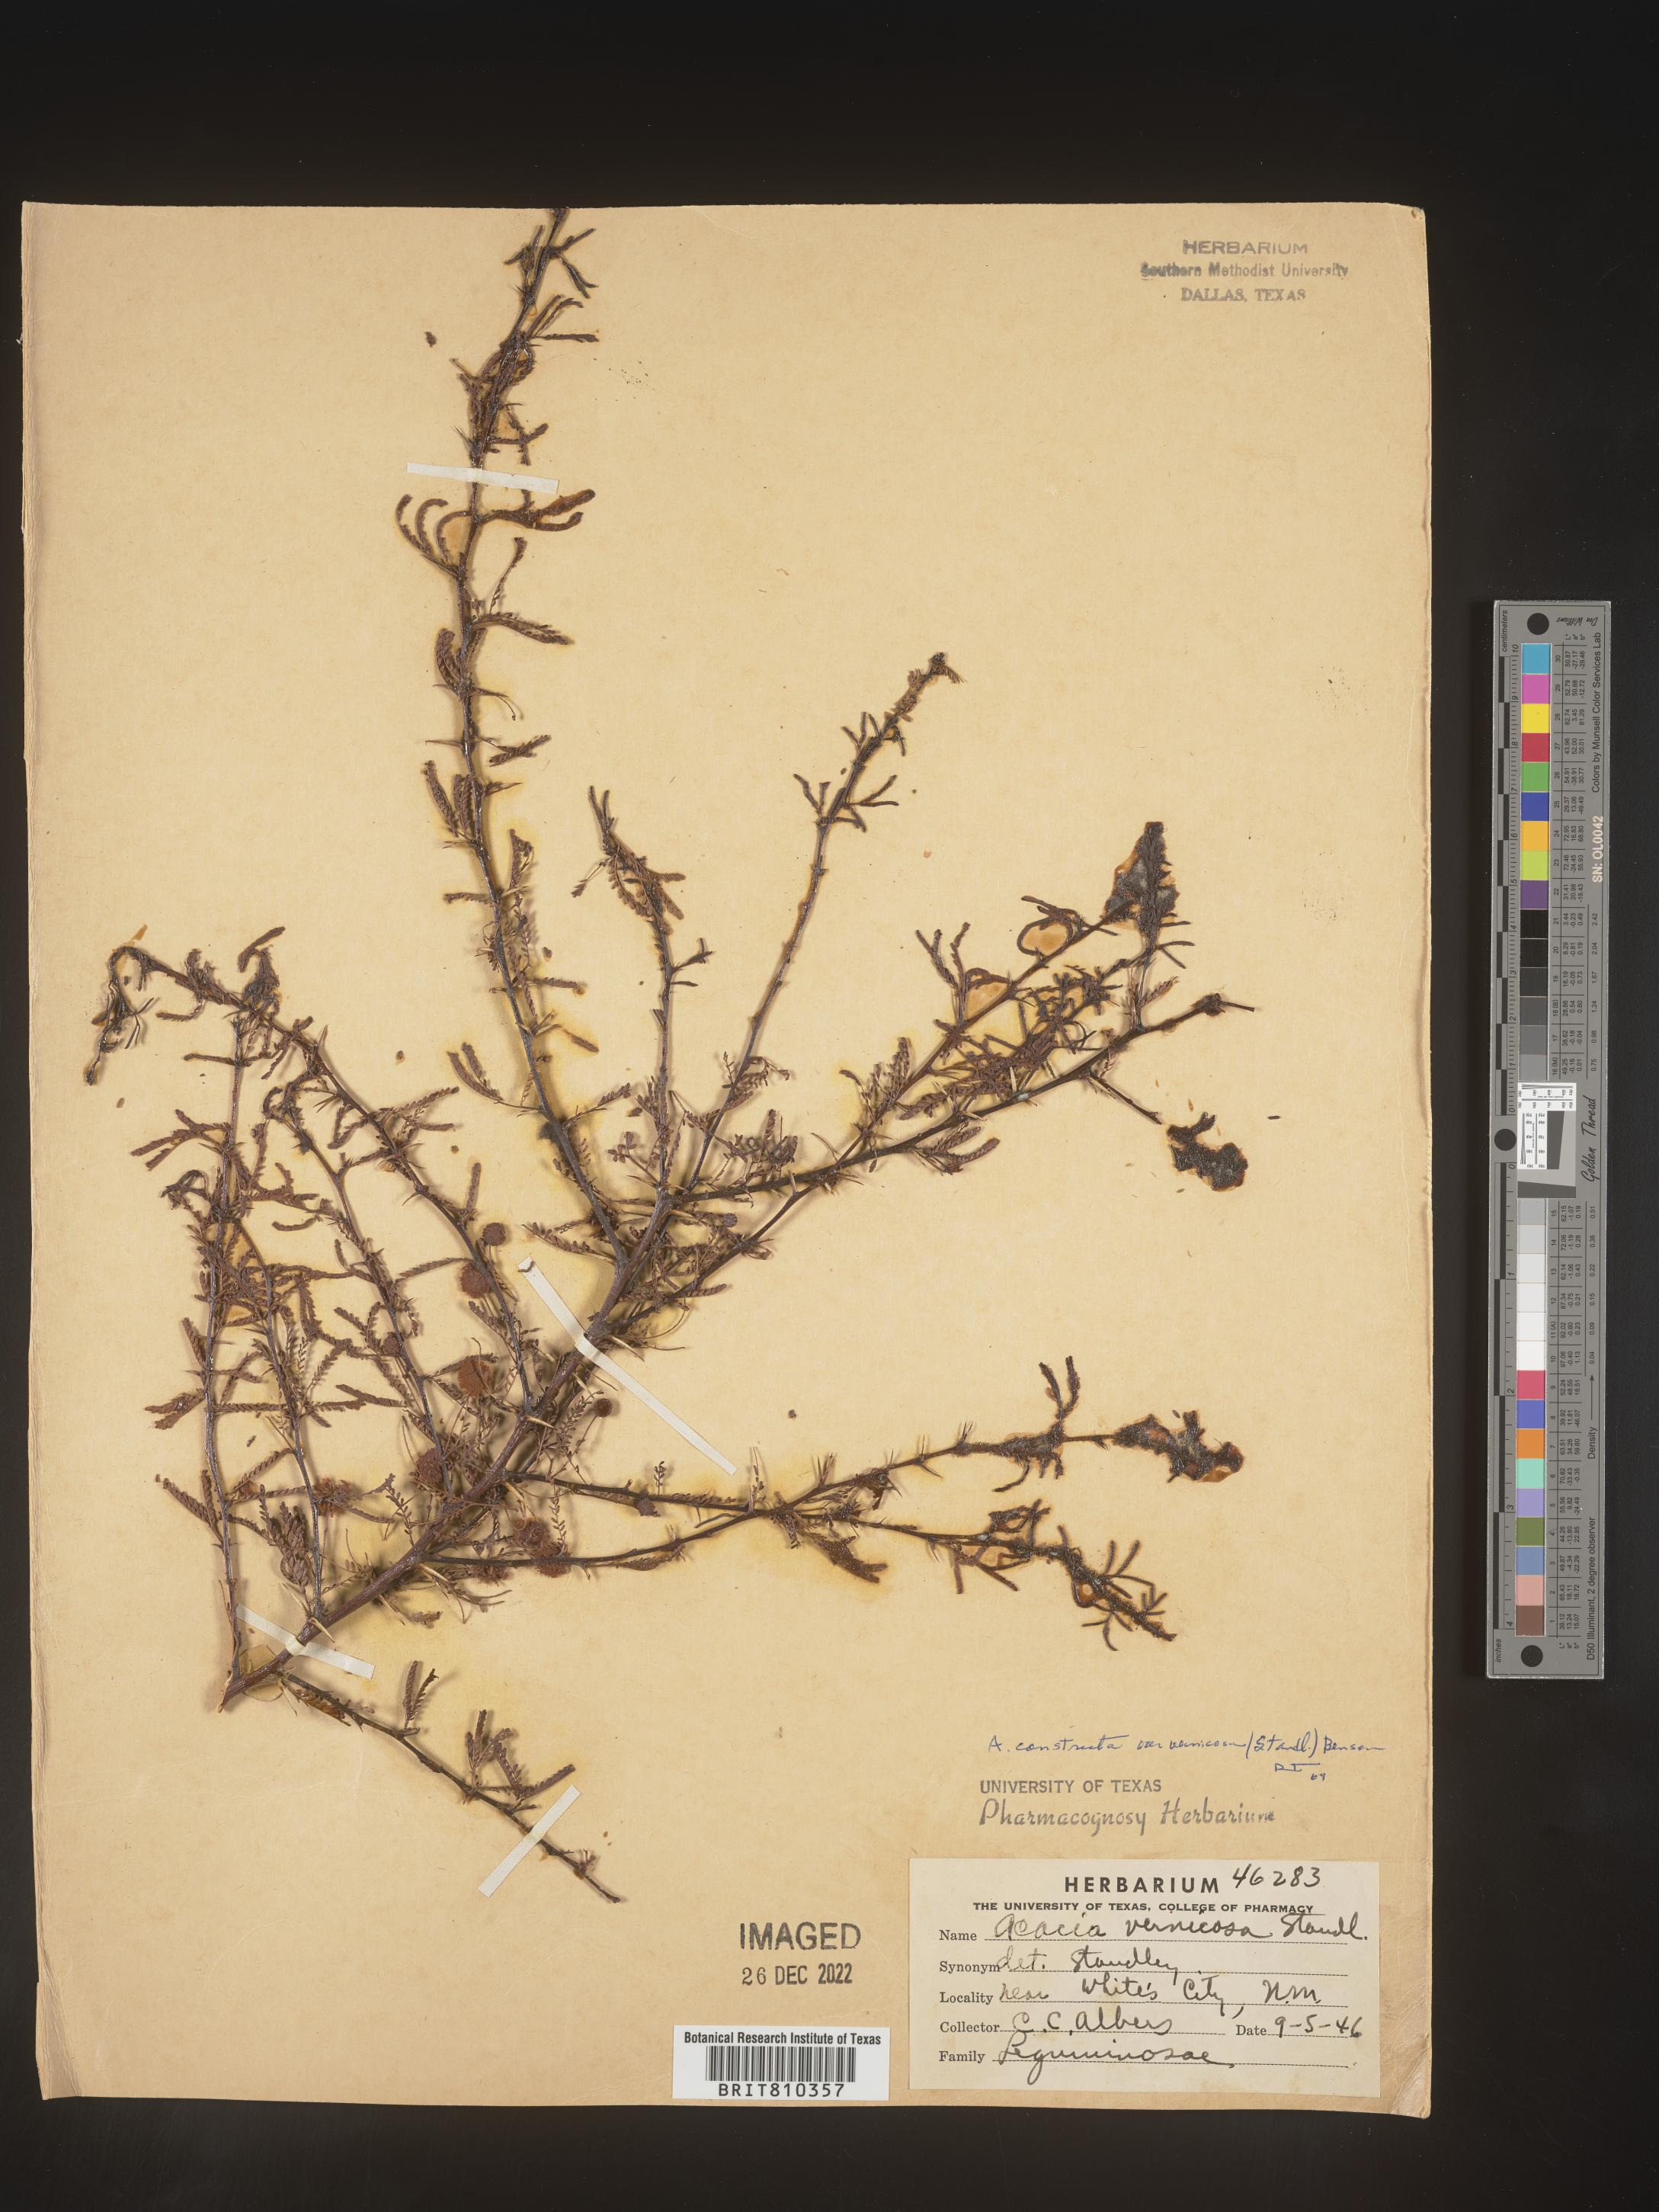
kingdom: Plantae
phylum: Tracheophyta
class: Magnoliopsida
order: Fabales
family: Fabaceae
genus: Acacia
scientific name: Acacia
